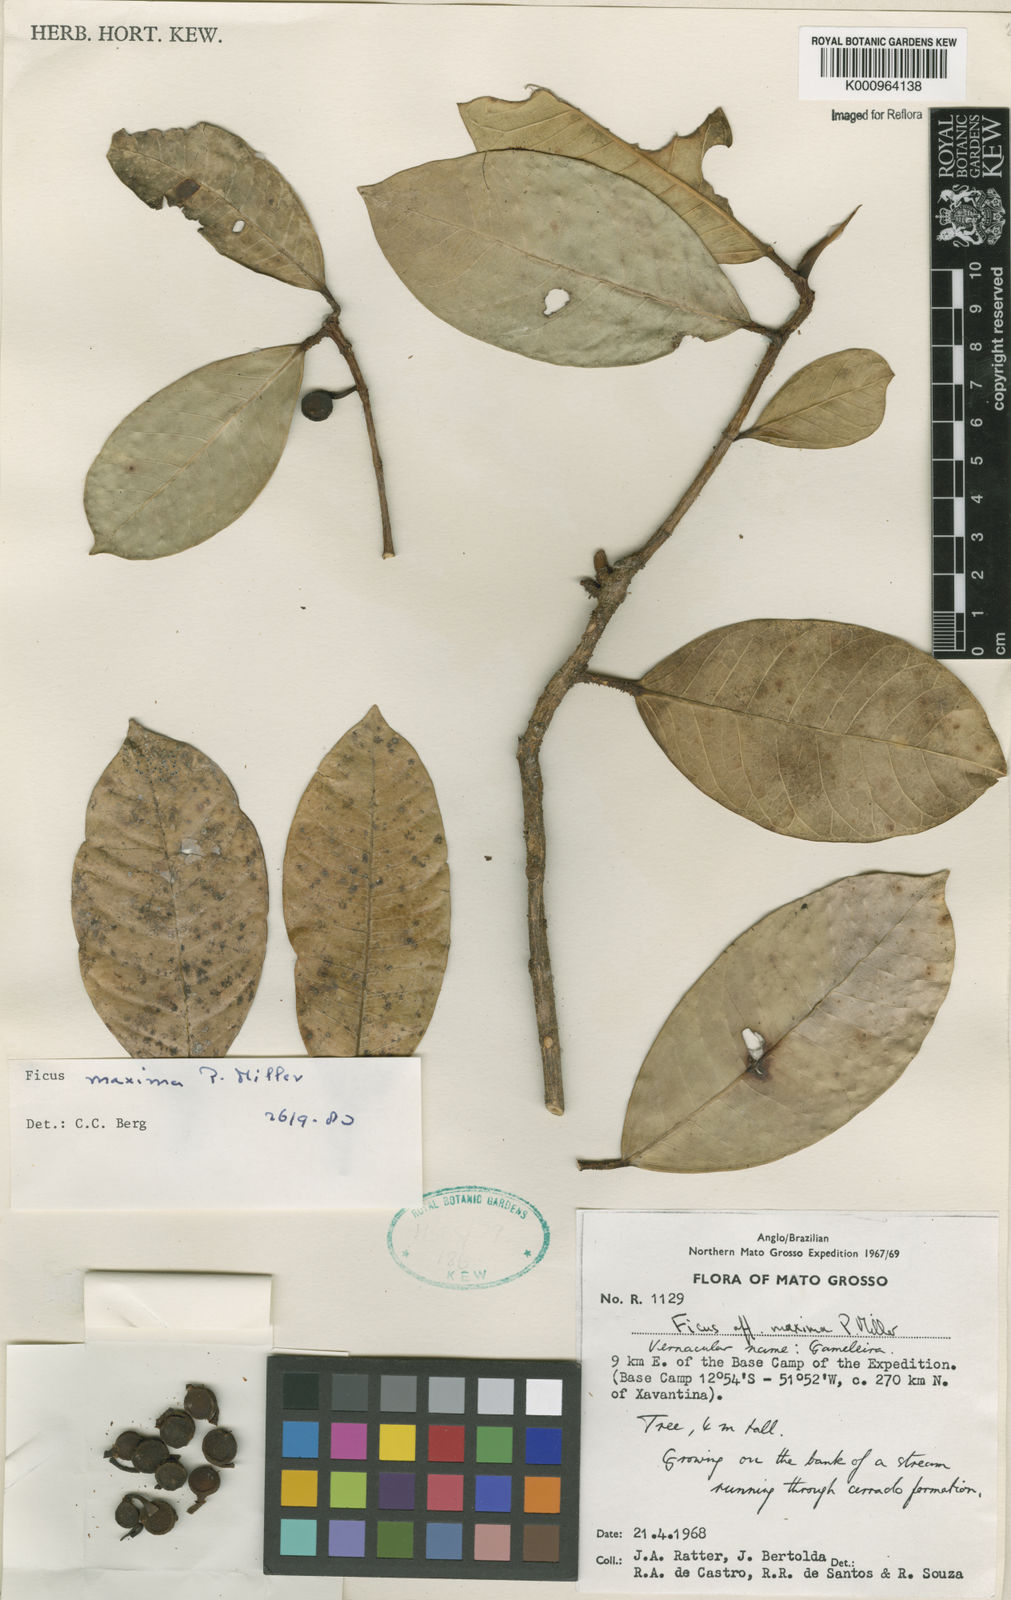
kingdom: Plantae
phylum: Tracheophyta
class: Magnoliopsida
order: Rosales
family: Moraceae
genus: Ficus
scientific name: Ficus maxima
